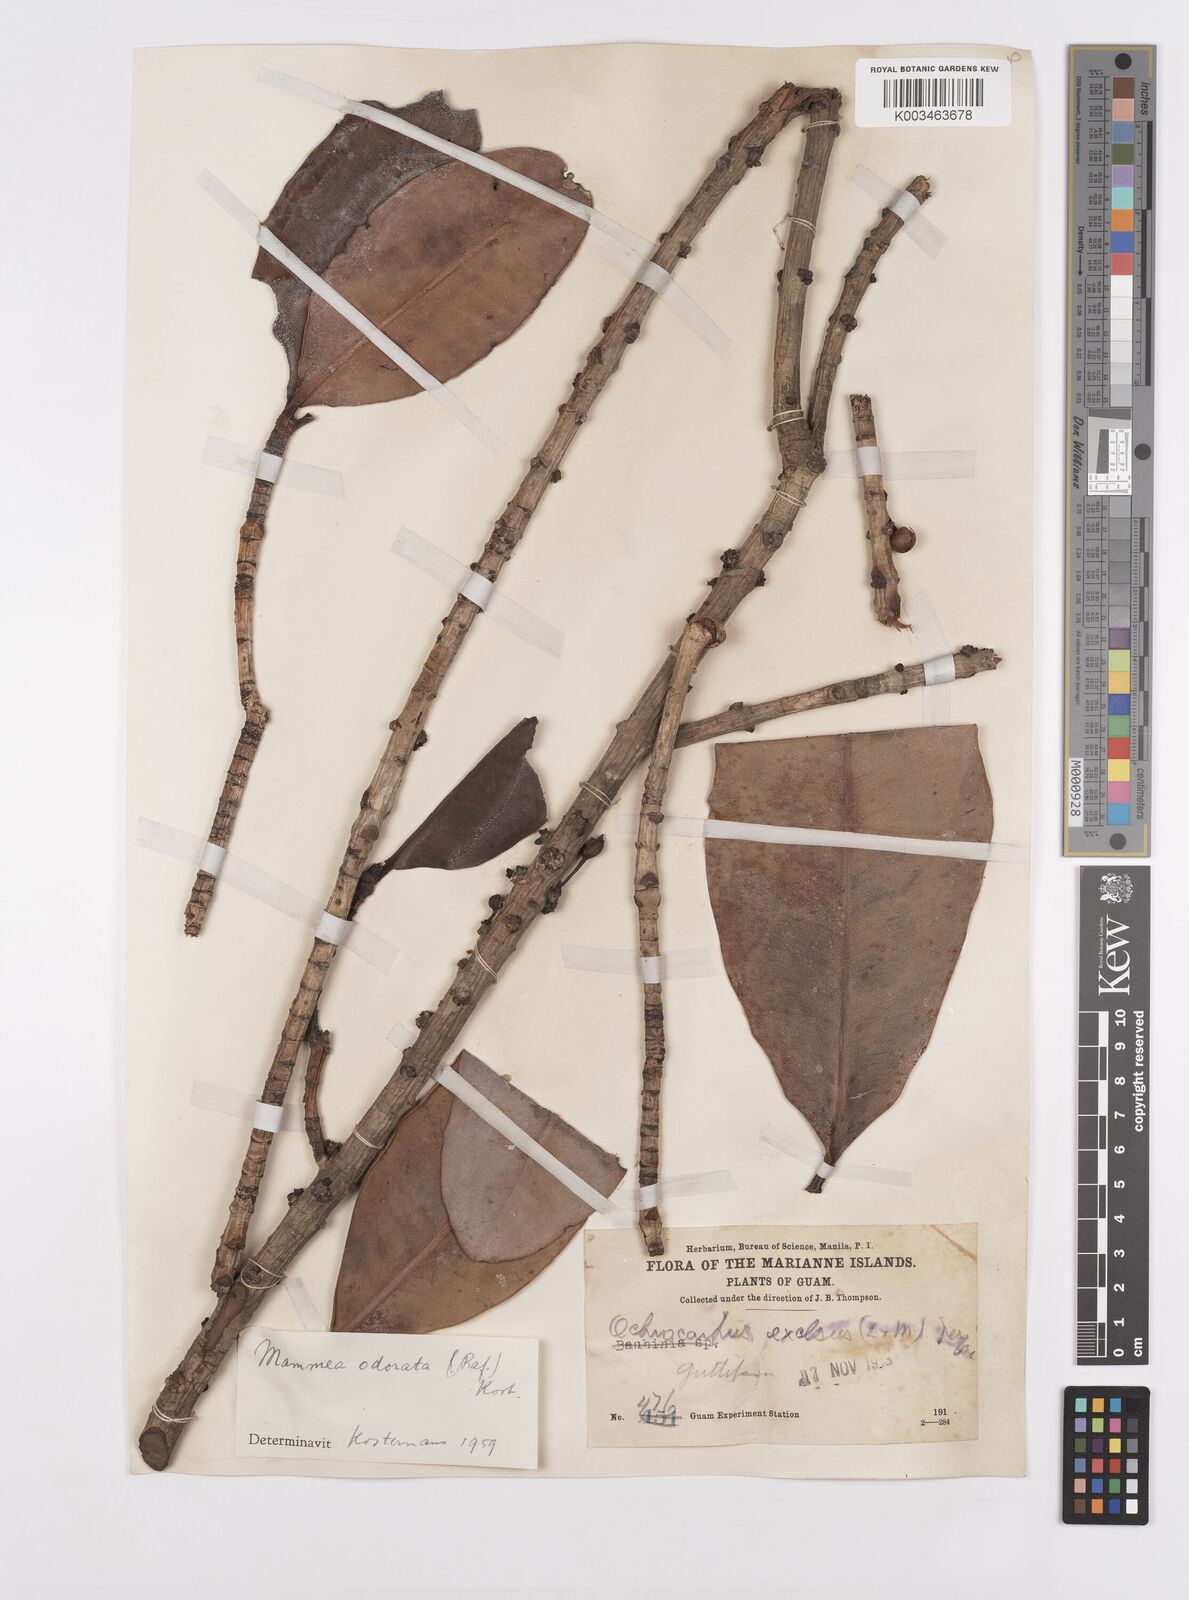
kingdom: Plantae
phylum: Tracheophyta
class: Magnoliopsida
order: Malpighiales
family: Calophyllaceae
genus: Mammea
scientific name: Mammea odorata
